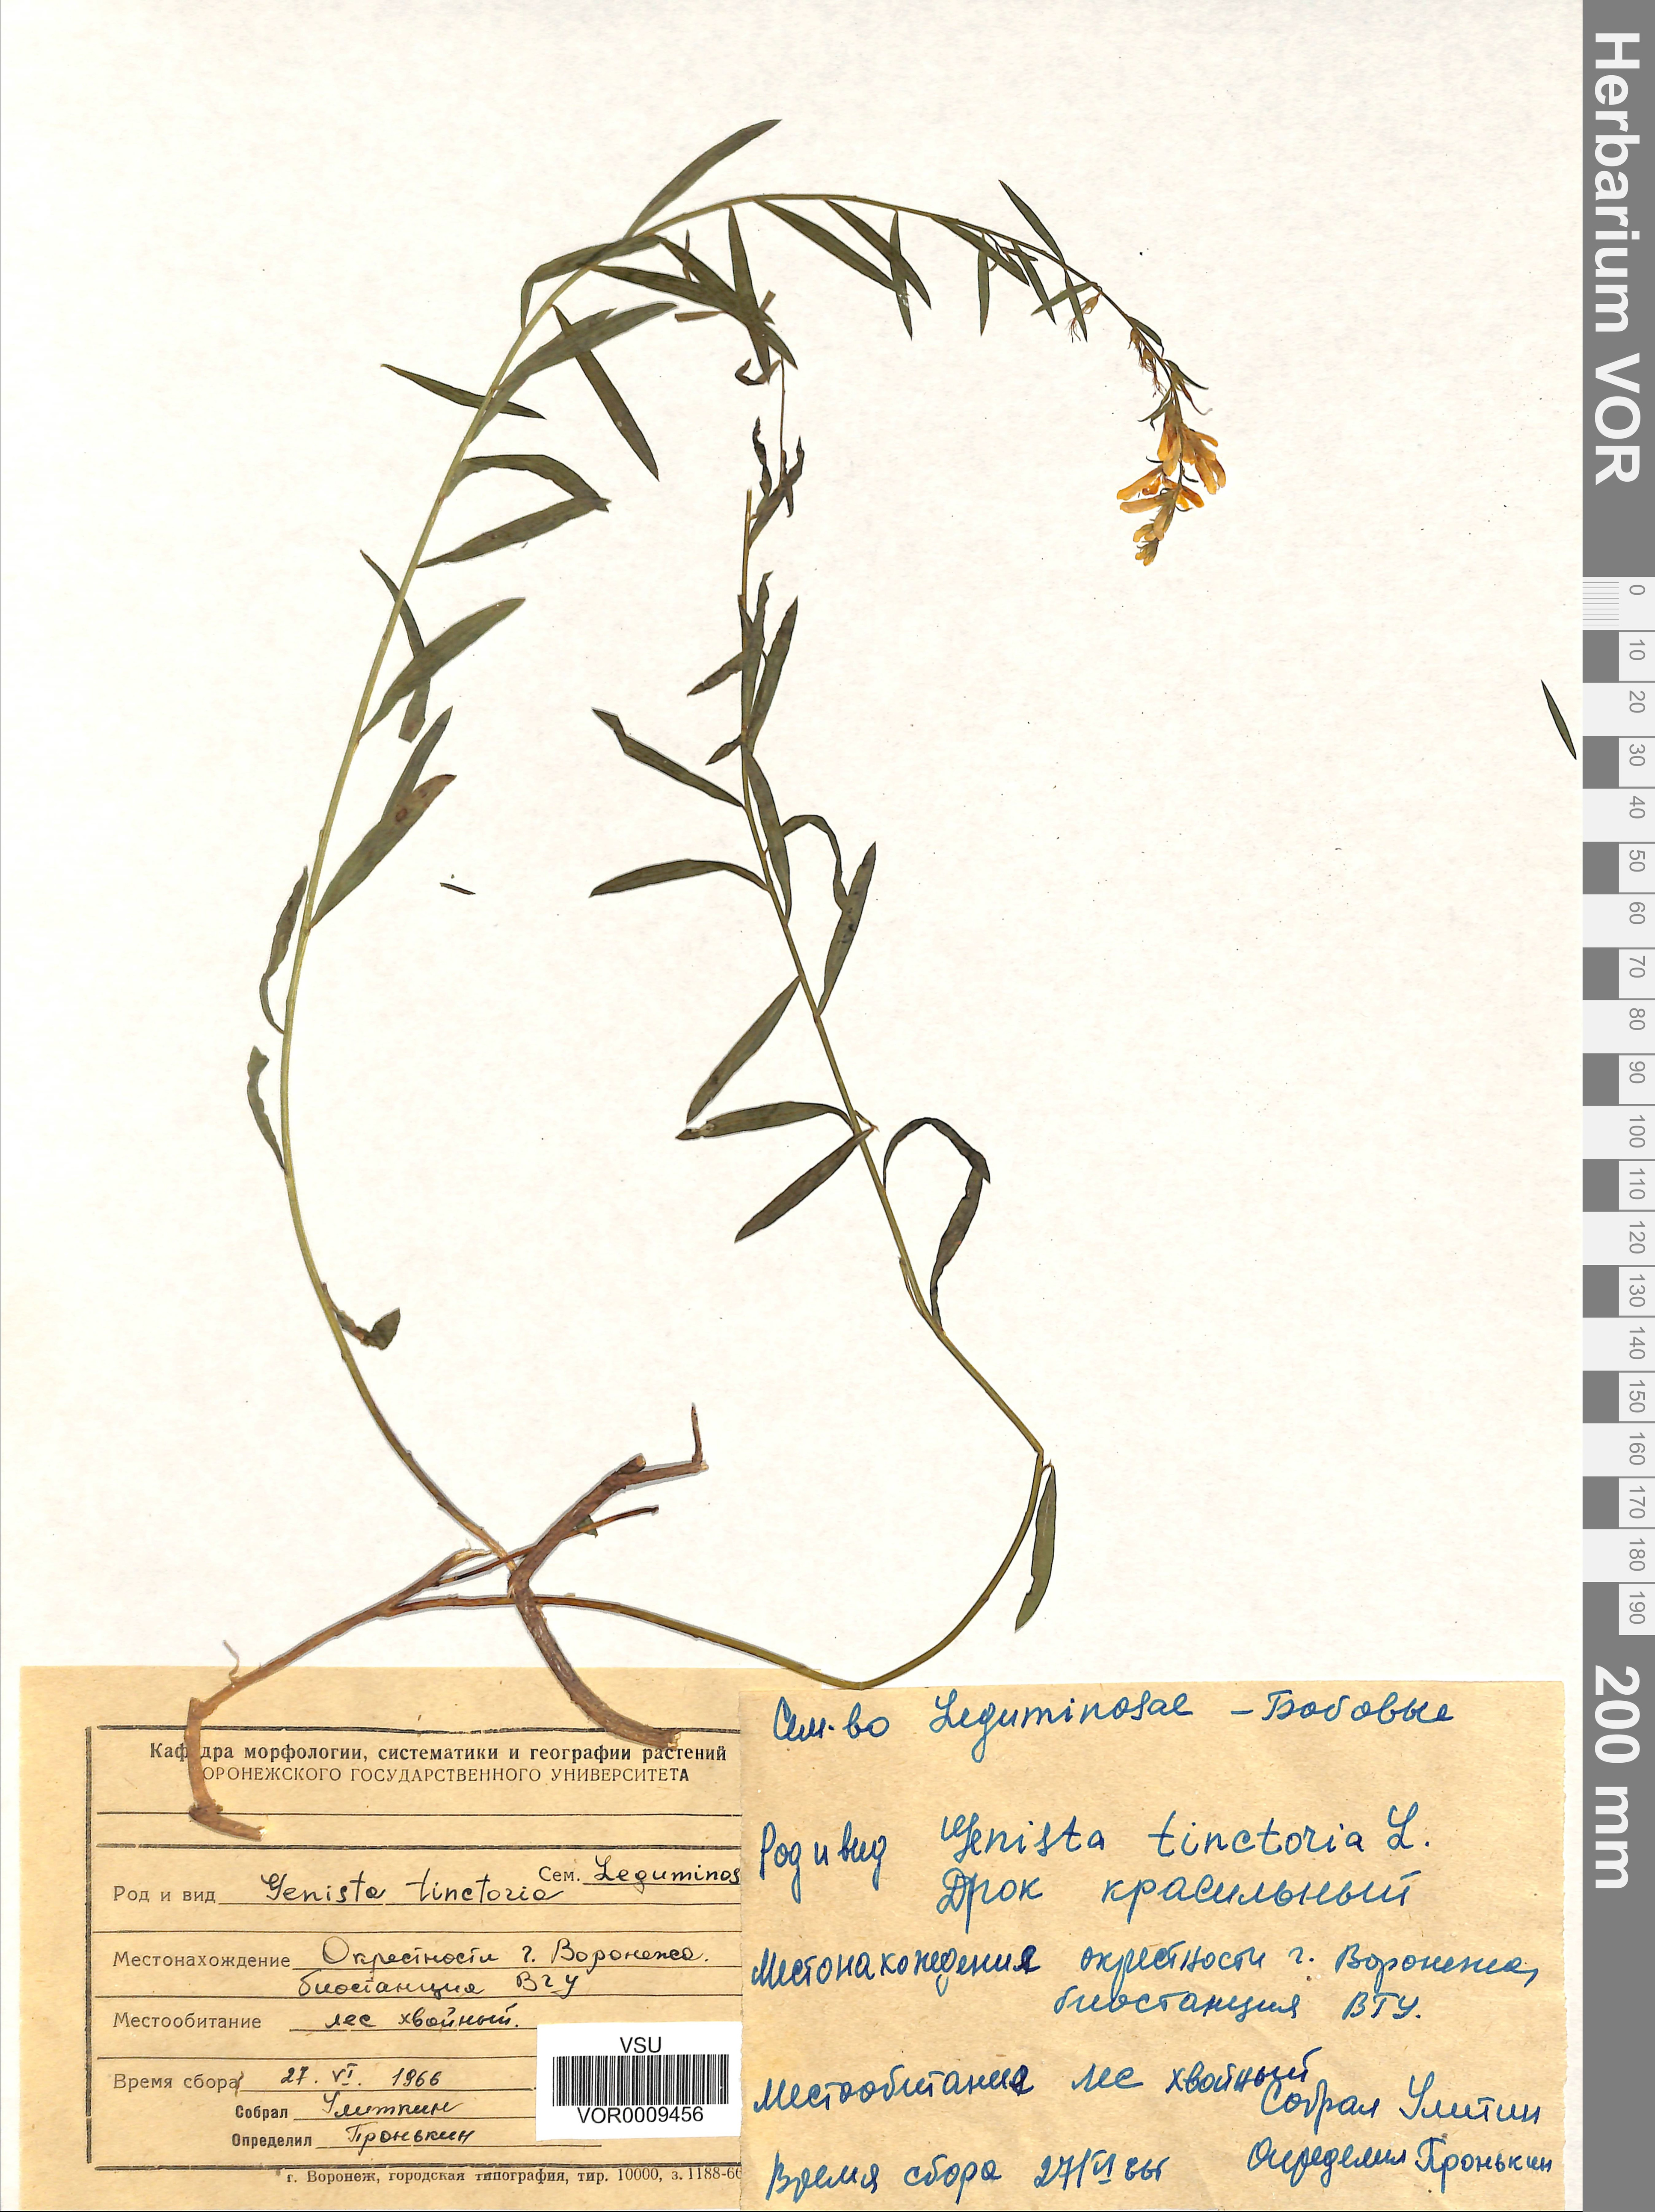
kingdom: Plantae
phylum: Tracheophyta
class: Magnoliopsida
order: Fabales
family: Fabaceae
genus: Genista
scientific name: Genista tinctoria
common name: Dyer's greenweed
